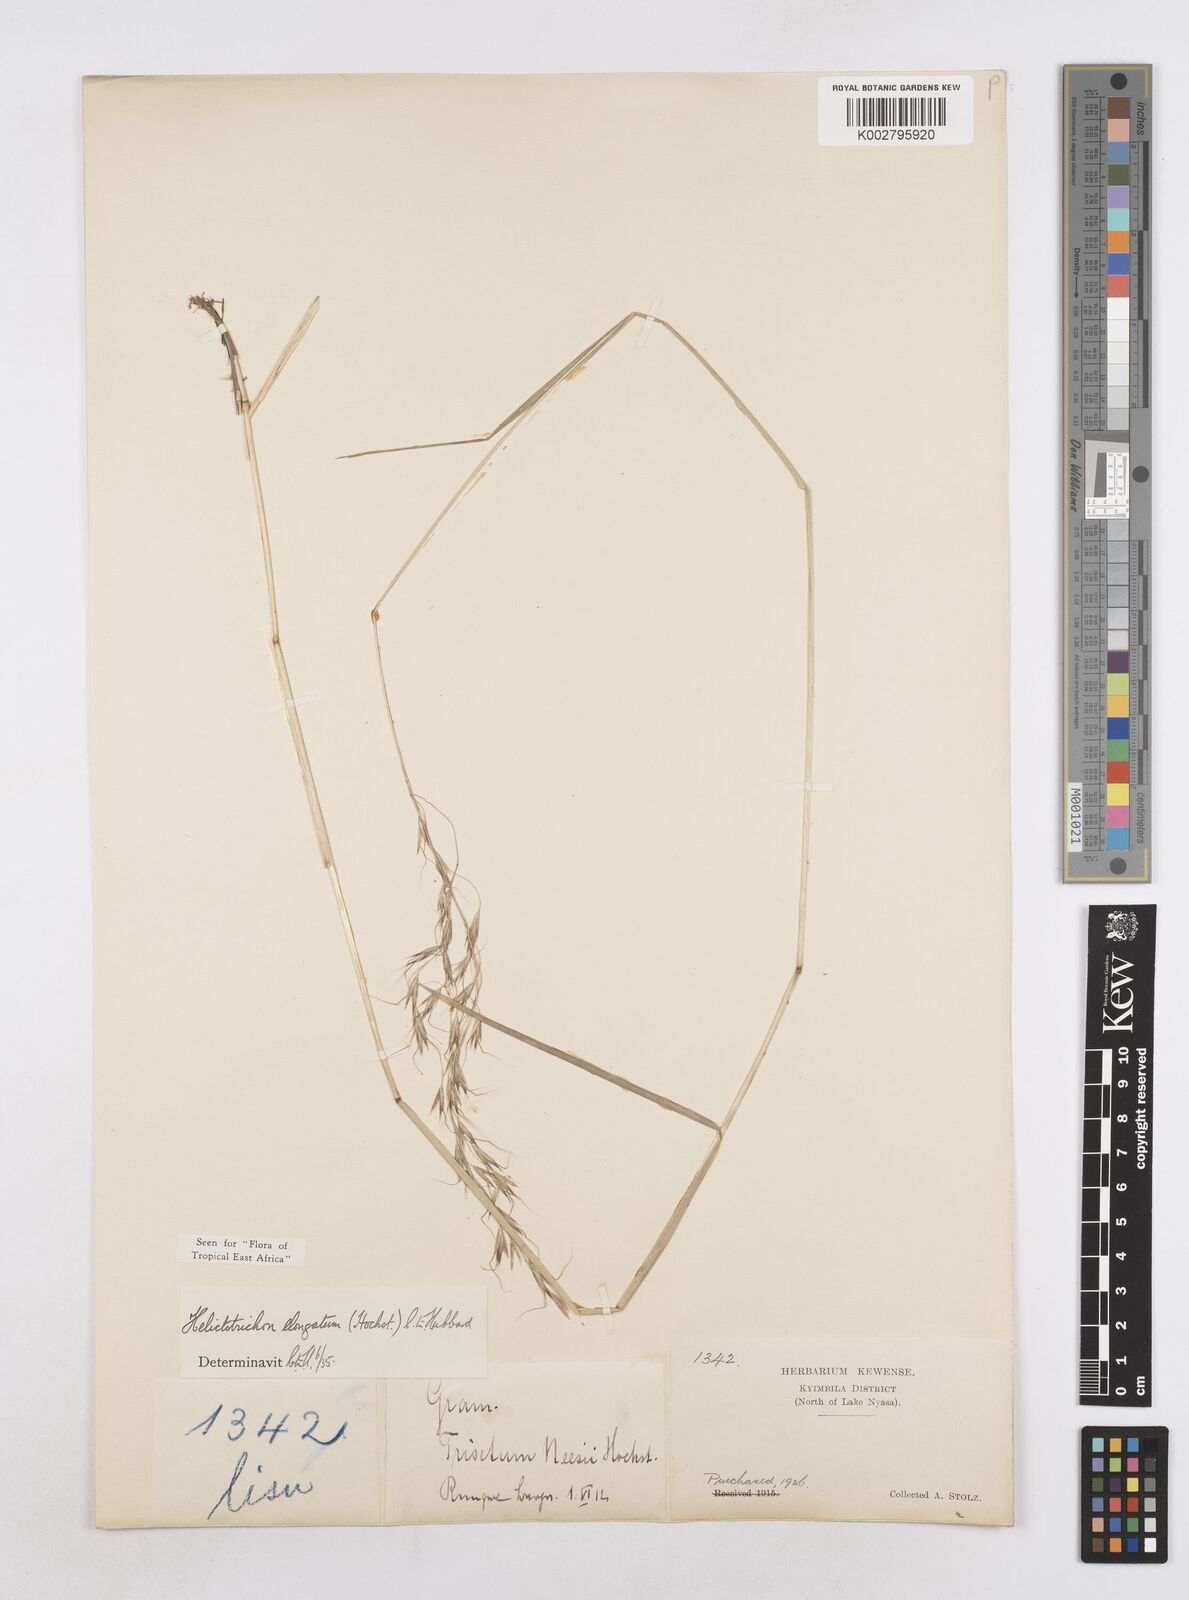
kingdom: Plantae
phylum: Tracheophyta
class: Liliopsida
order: Poales
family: Poaceae
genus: Trisetopsis
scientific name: Trisetopsis elongata
